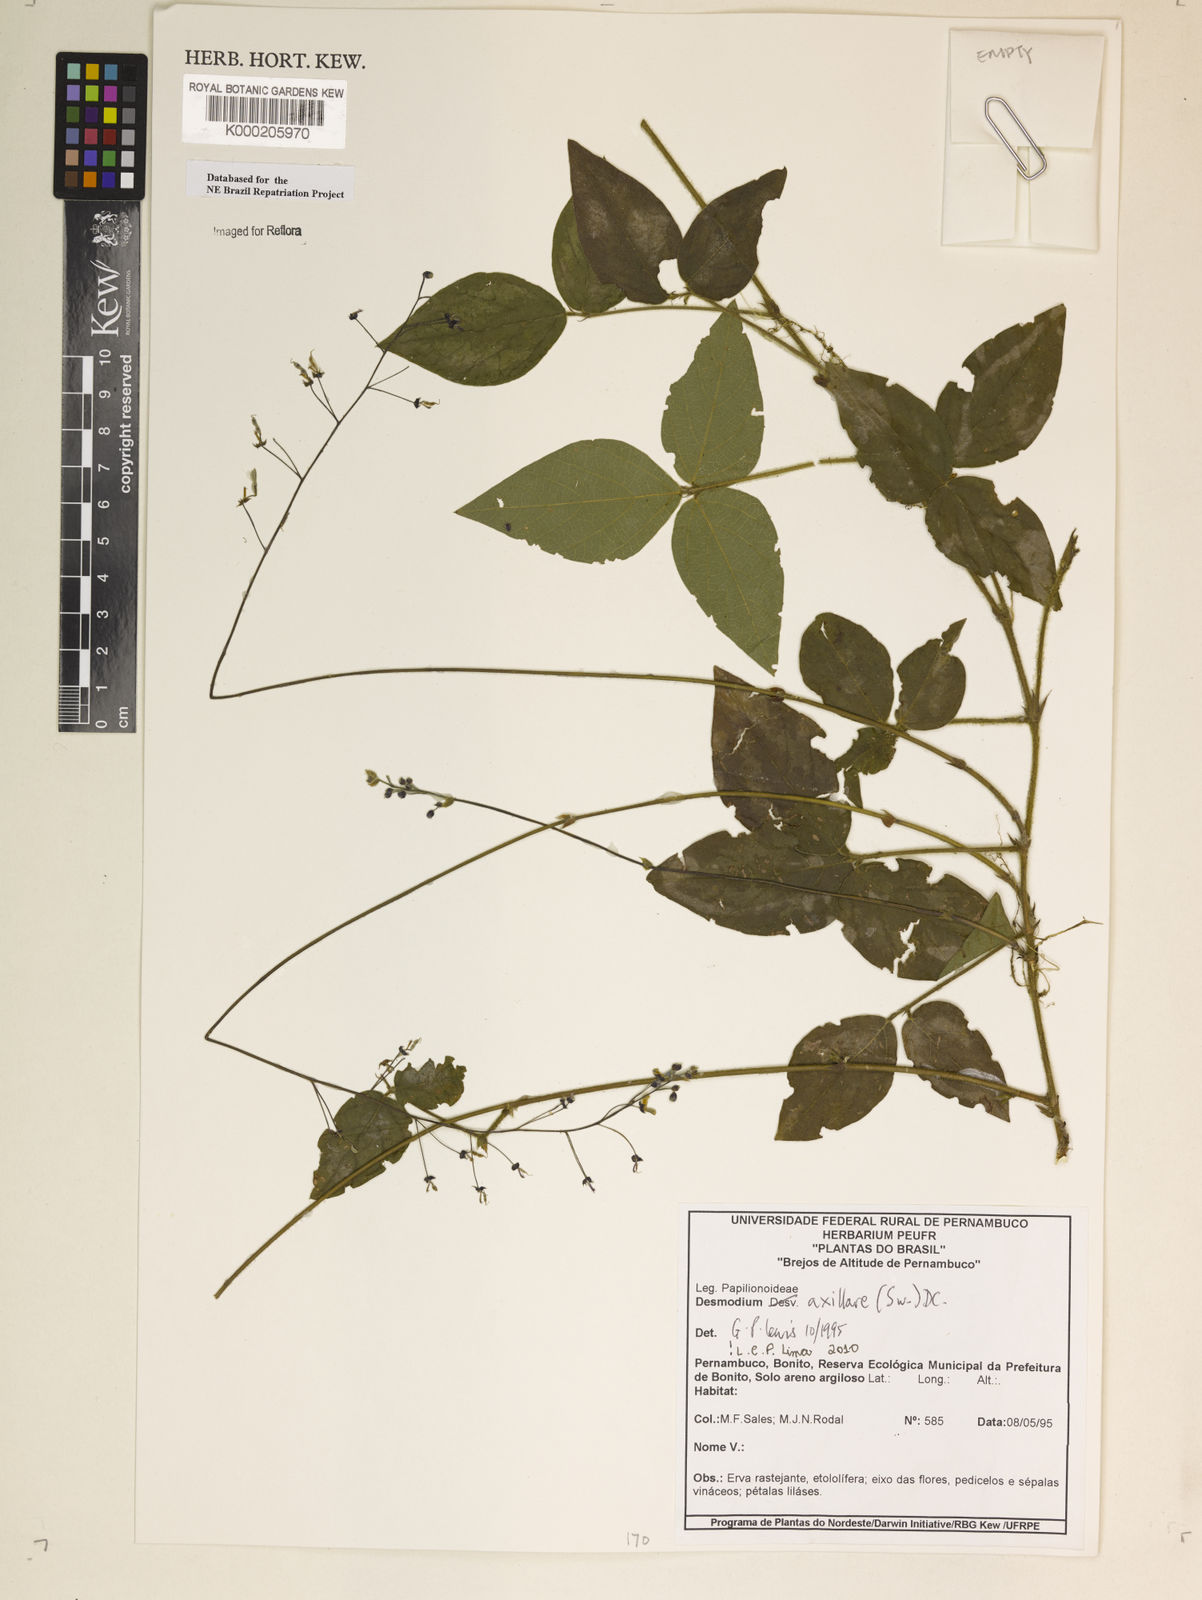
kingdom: Plantae
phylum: Tracheophyta
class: Magnoliopsida
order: Fabales
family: Fabaceae
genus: Desmodium
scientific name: Desmodium axillare
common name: Wire with
